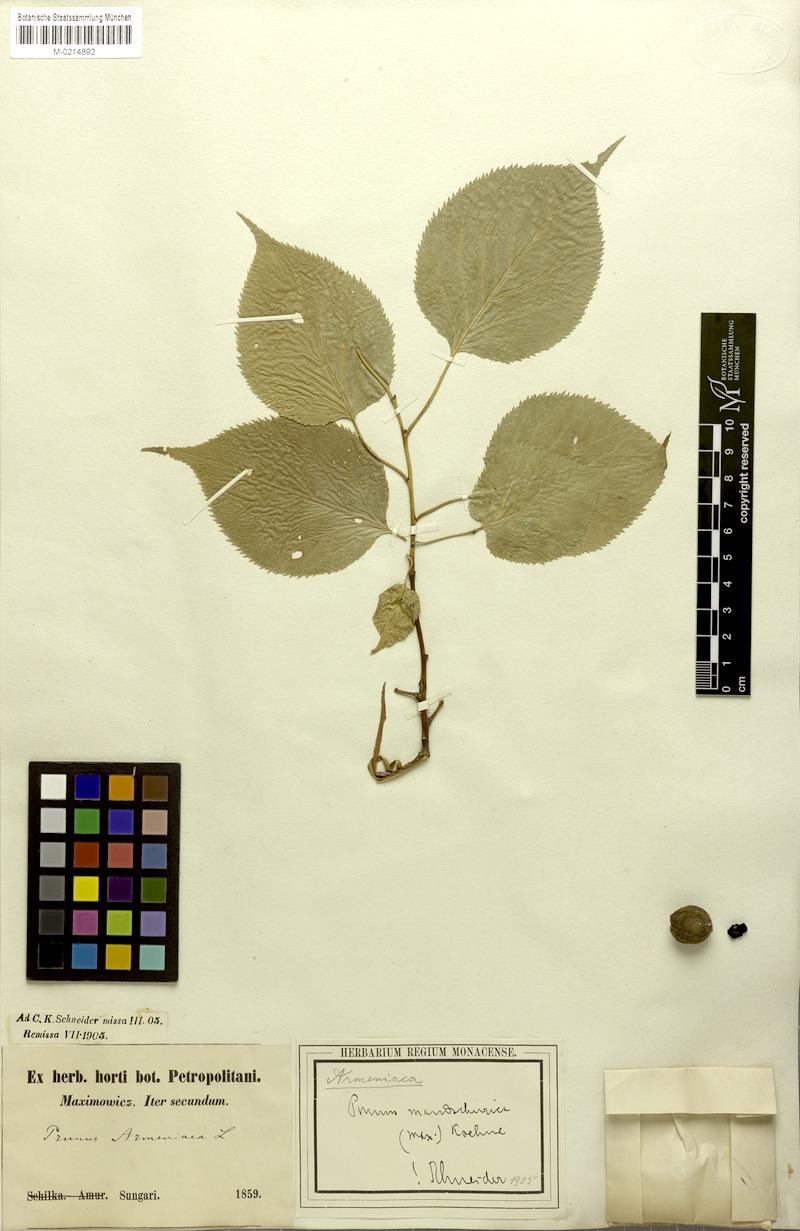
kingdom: Plantae
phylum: Tracheophyta
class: Magnoliopsida
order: Rosales
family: Rosaceae
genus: Prunus
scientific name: Prunus mandshurica
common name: Manchurian apricot
